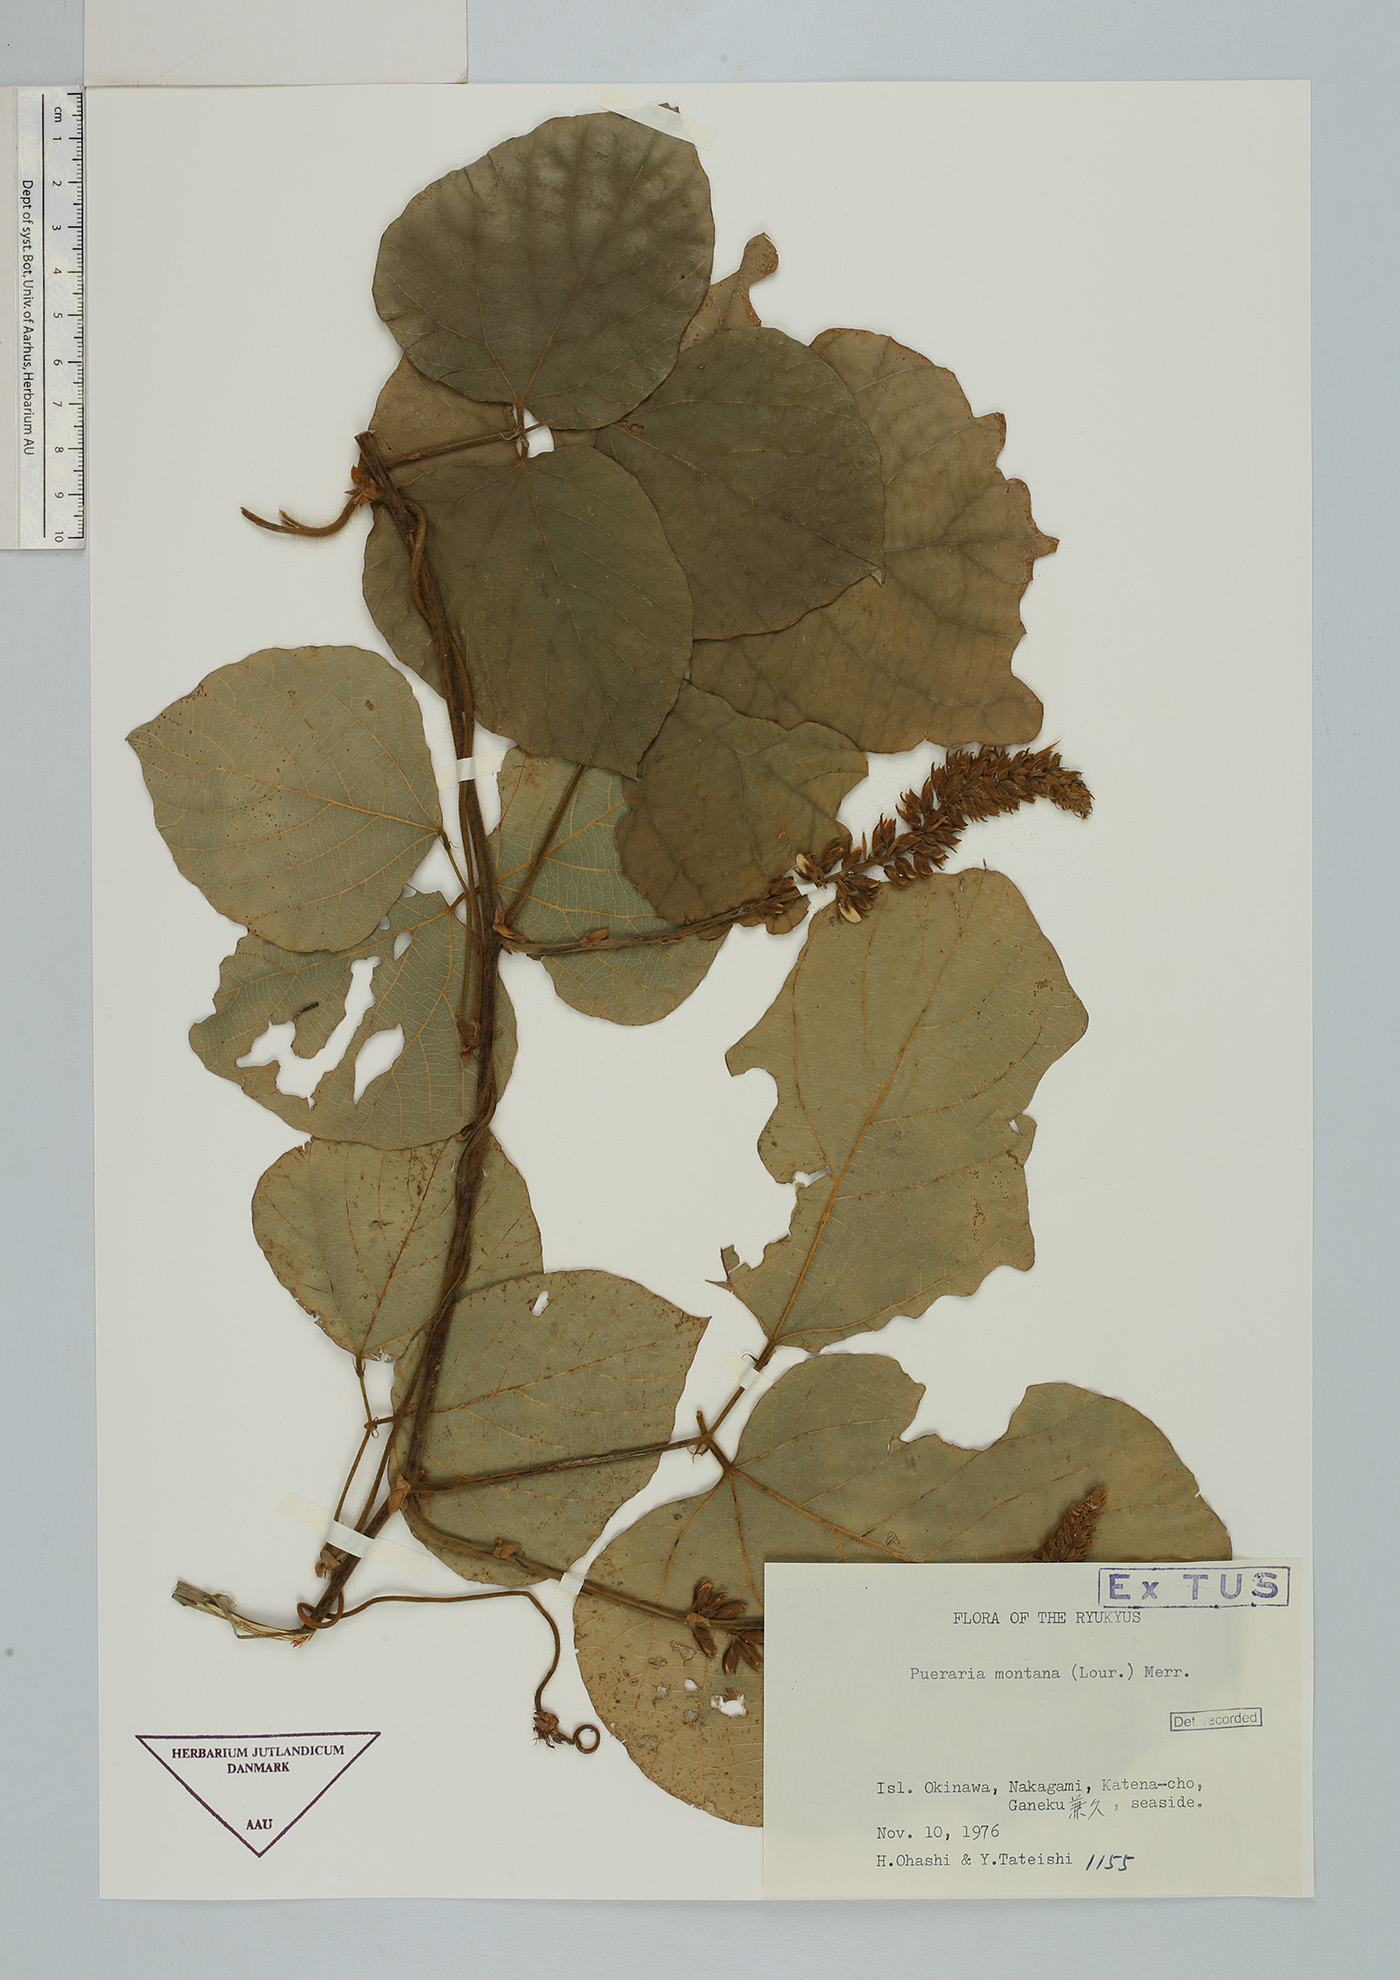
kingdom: Plantae
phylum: Tracheophyta
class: Magnoliopsida
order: Fabales
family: Fabaceae
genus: Pueraria
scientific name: Pueraria montana
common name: Kudzu
